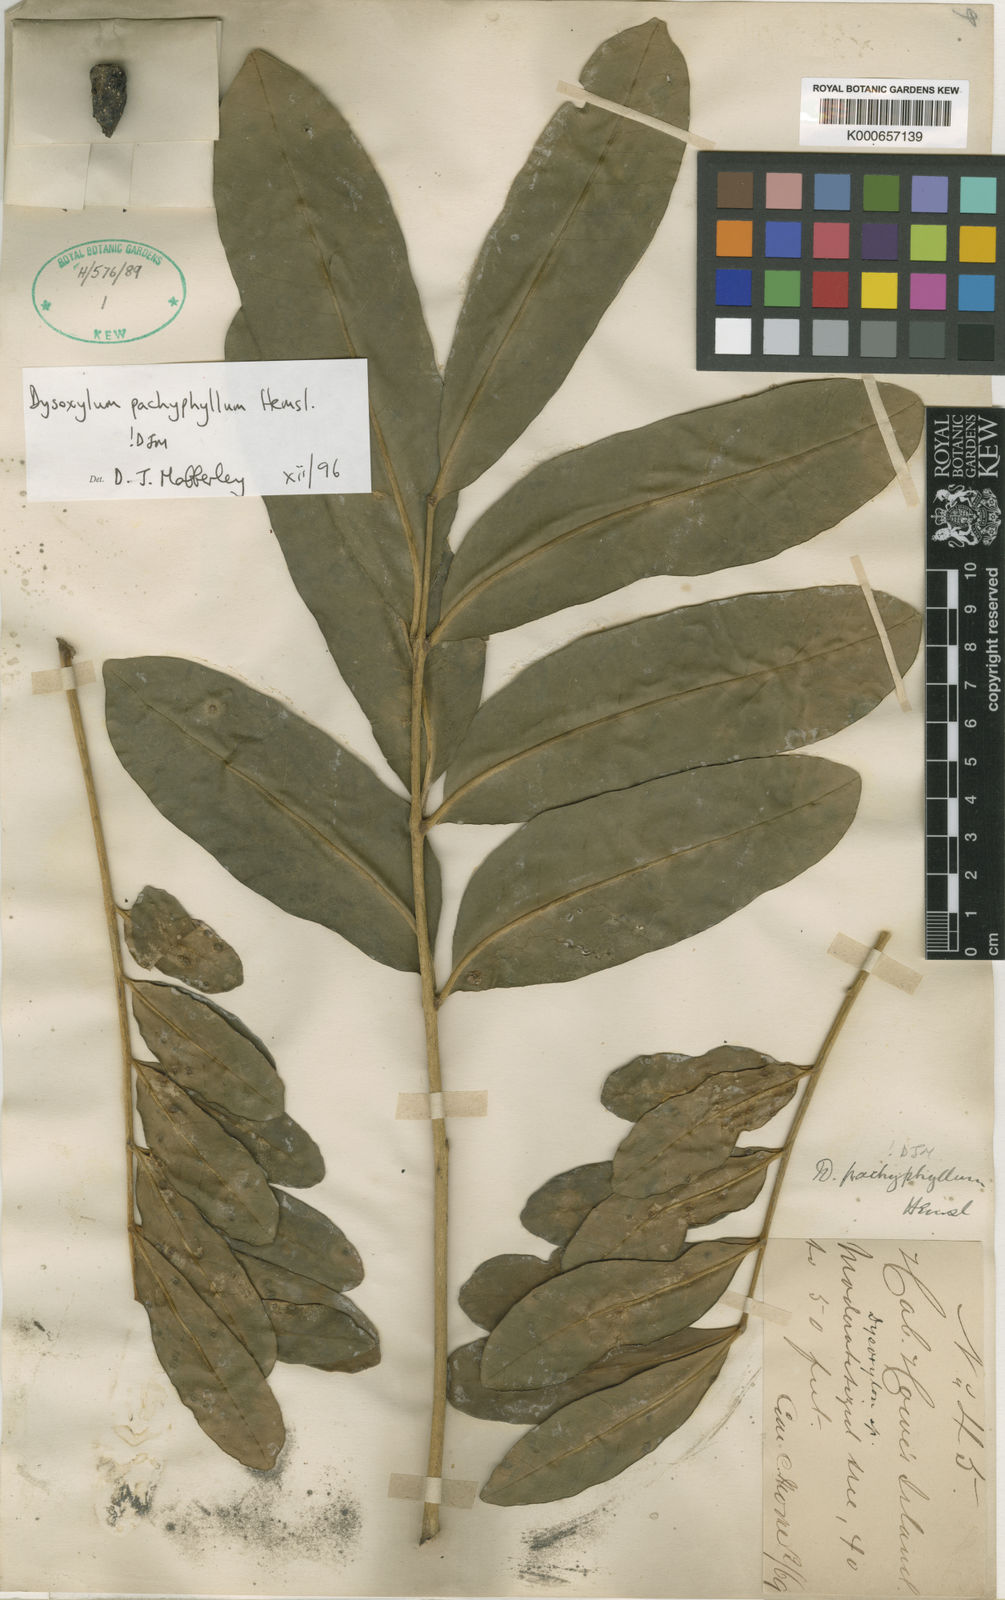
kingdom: Plantae
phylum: Tracheophyta
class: Magnoliopsida
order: Sapindales
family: Meliaceae
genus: Didymocheton
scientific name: Didymocheton pachyphyllus
